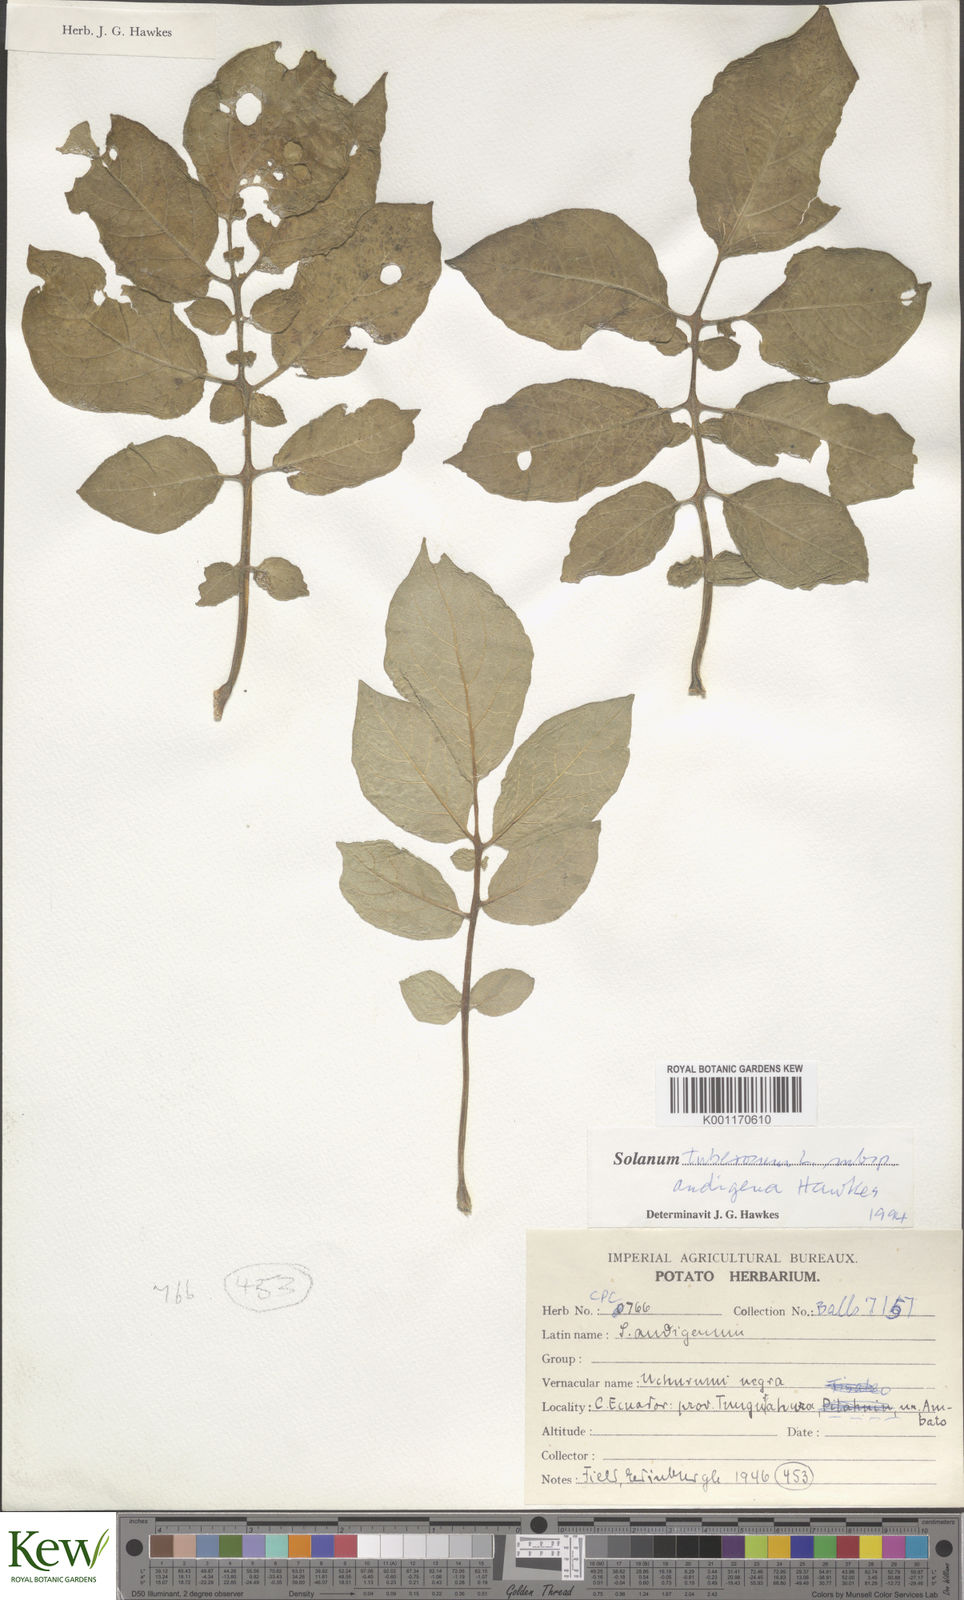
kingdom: Plantae
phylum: Tracheophyta
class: Magnoliopsida
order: Solanales
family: Solanaceae
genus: Solanum
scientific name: Solanum tuberosum
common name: Potato
